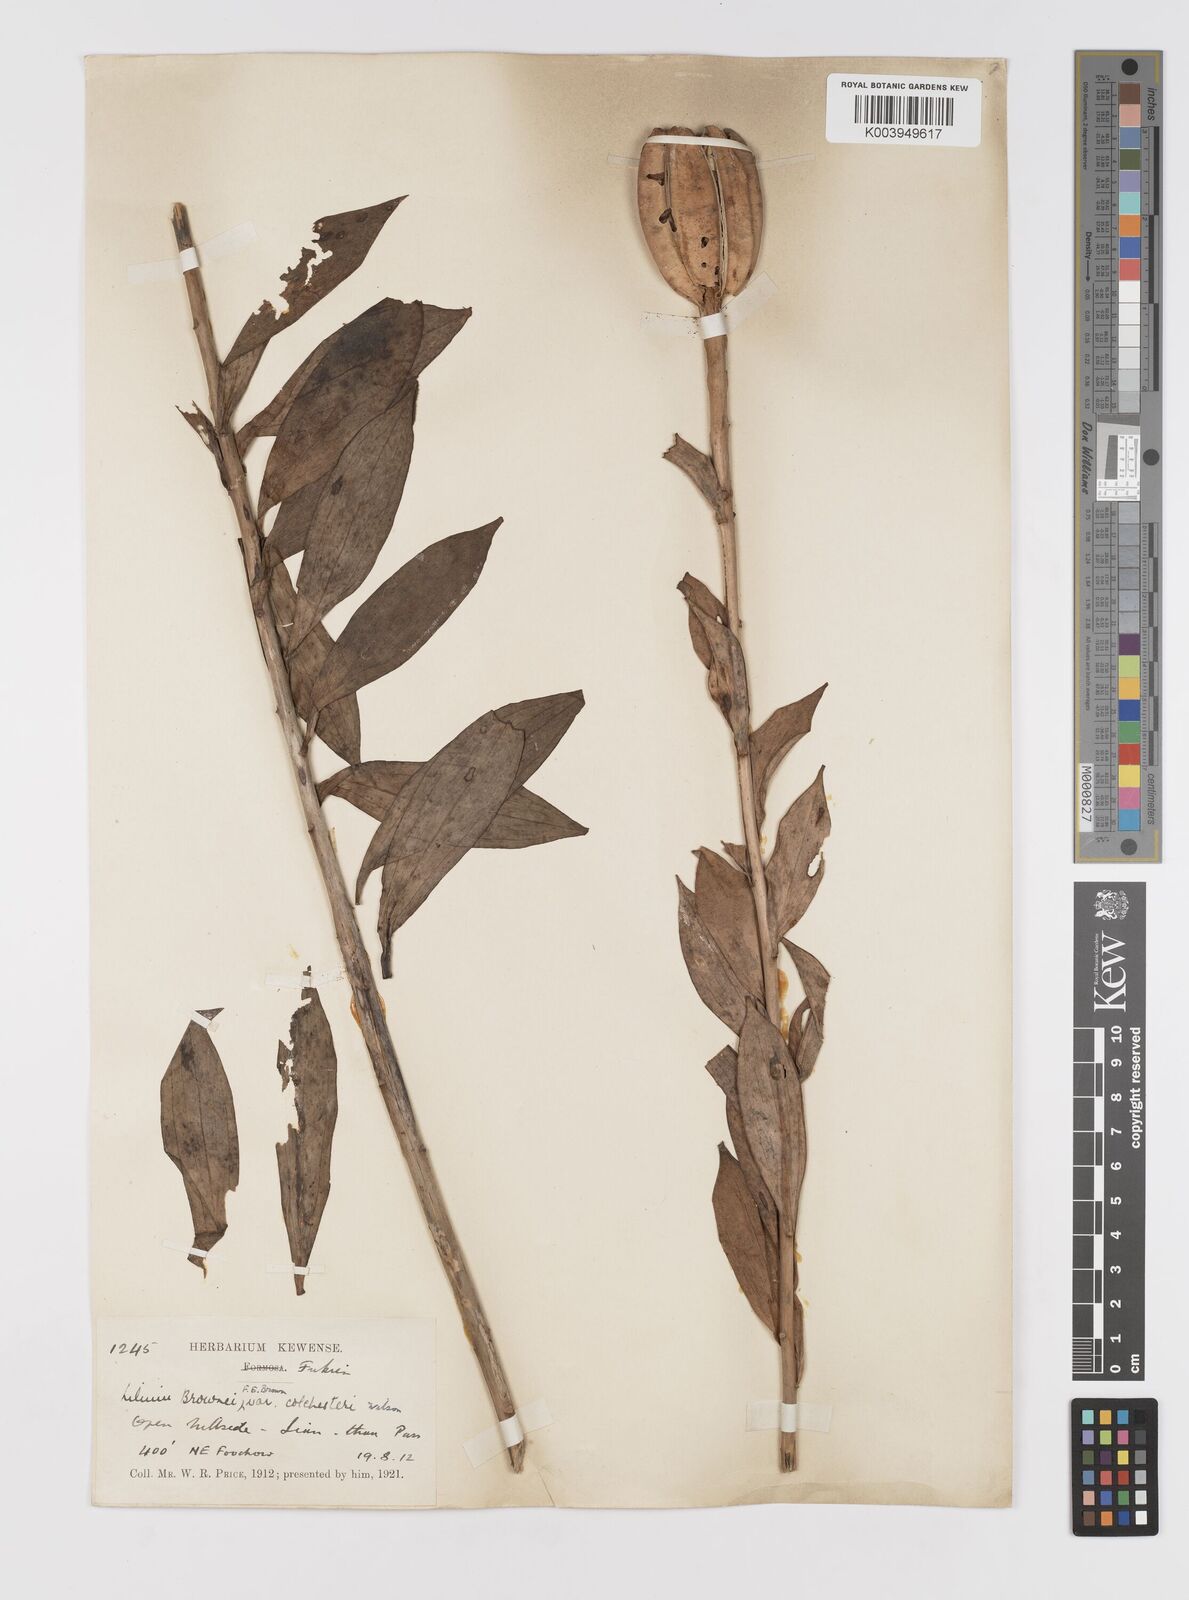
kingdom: Plantae
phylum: Tracheophyta
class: Liliopsida
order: Liliales
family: Liliaceae
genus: Lilium
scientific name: Lilium
